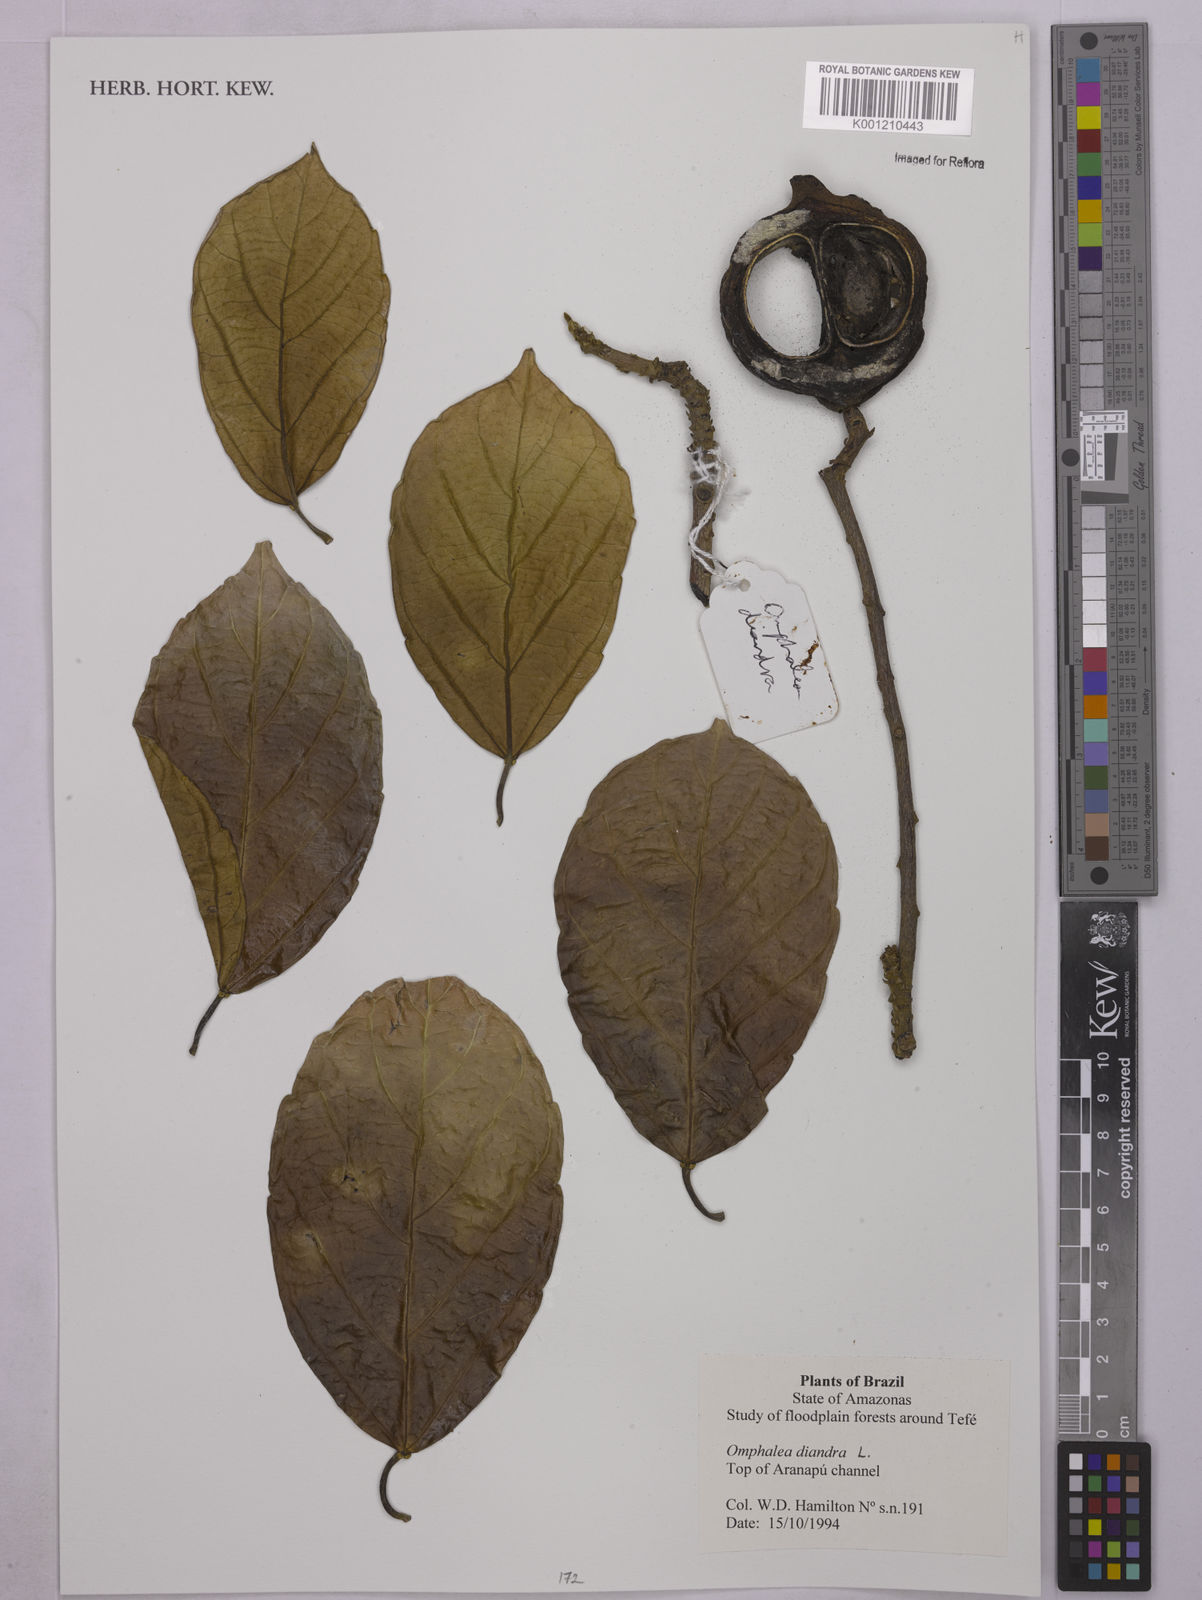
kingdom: Plantae
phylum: Tracheophyta
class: Magnoliopsida
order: Malpighiales
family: Euphorbiaceae
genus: Omphalea
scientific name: Omphalea diandra
